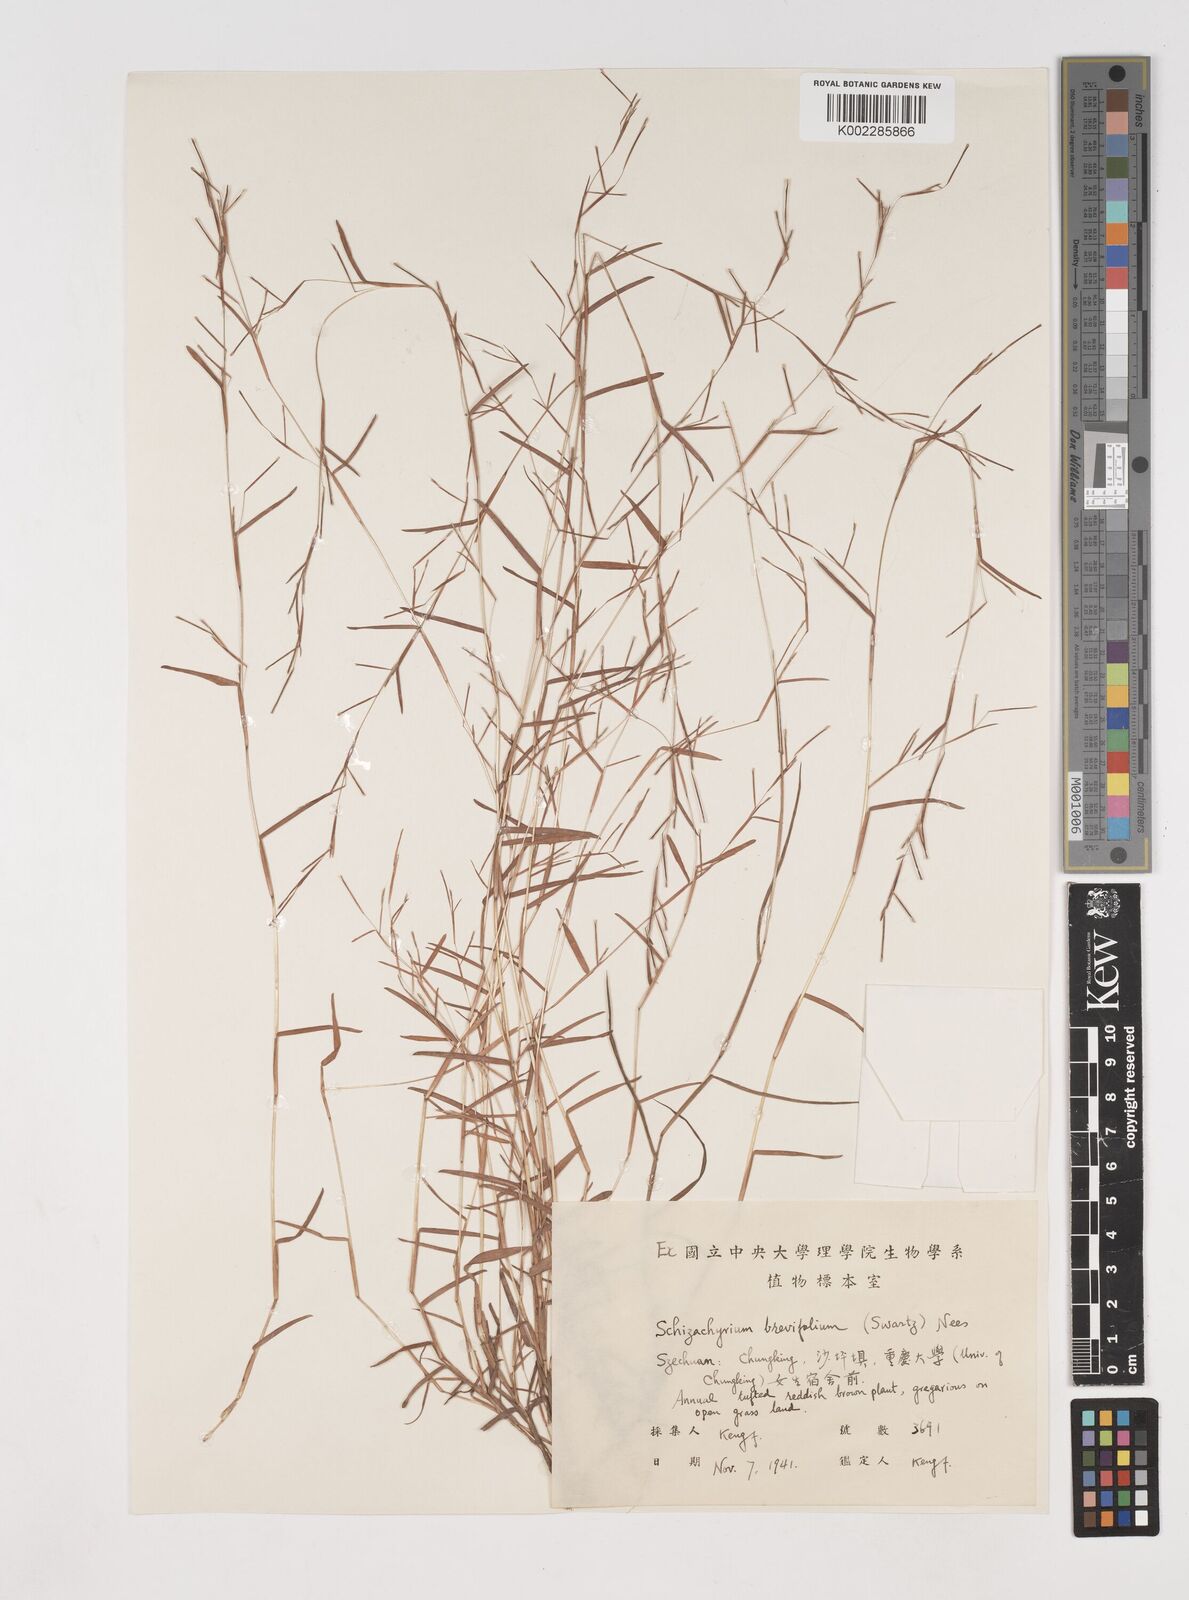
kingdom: Plantae
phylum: Tracheophyta
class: Liliopsida
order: Poales
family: Poaceae
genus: Schizachyrium
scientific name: Schizachyrium brevifolium
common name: Serillo dulce
